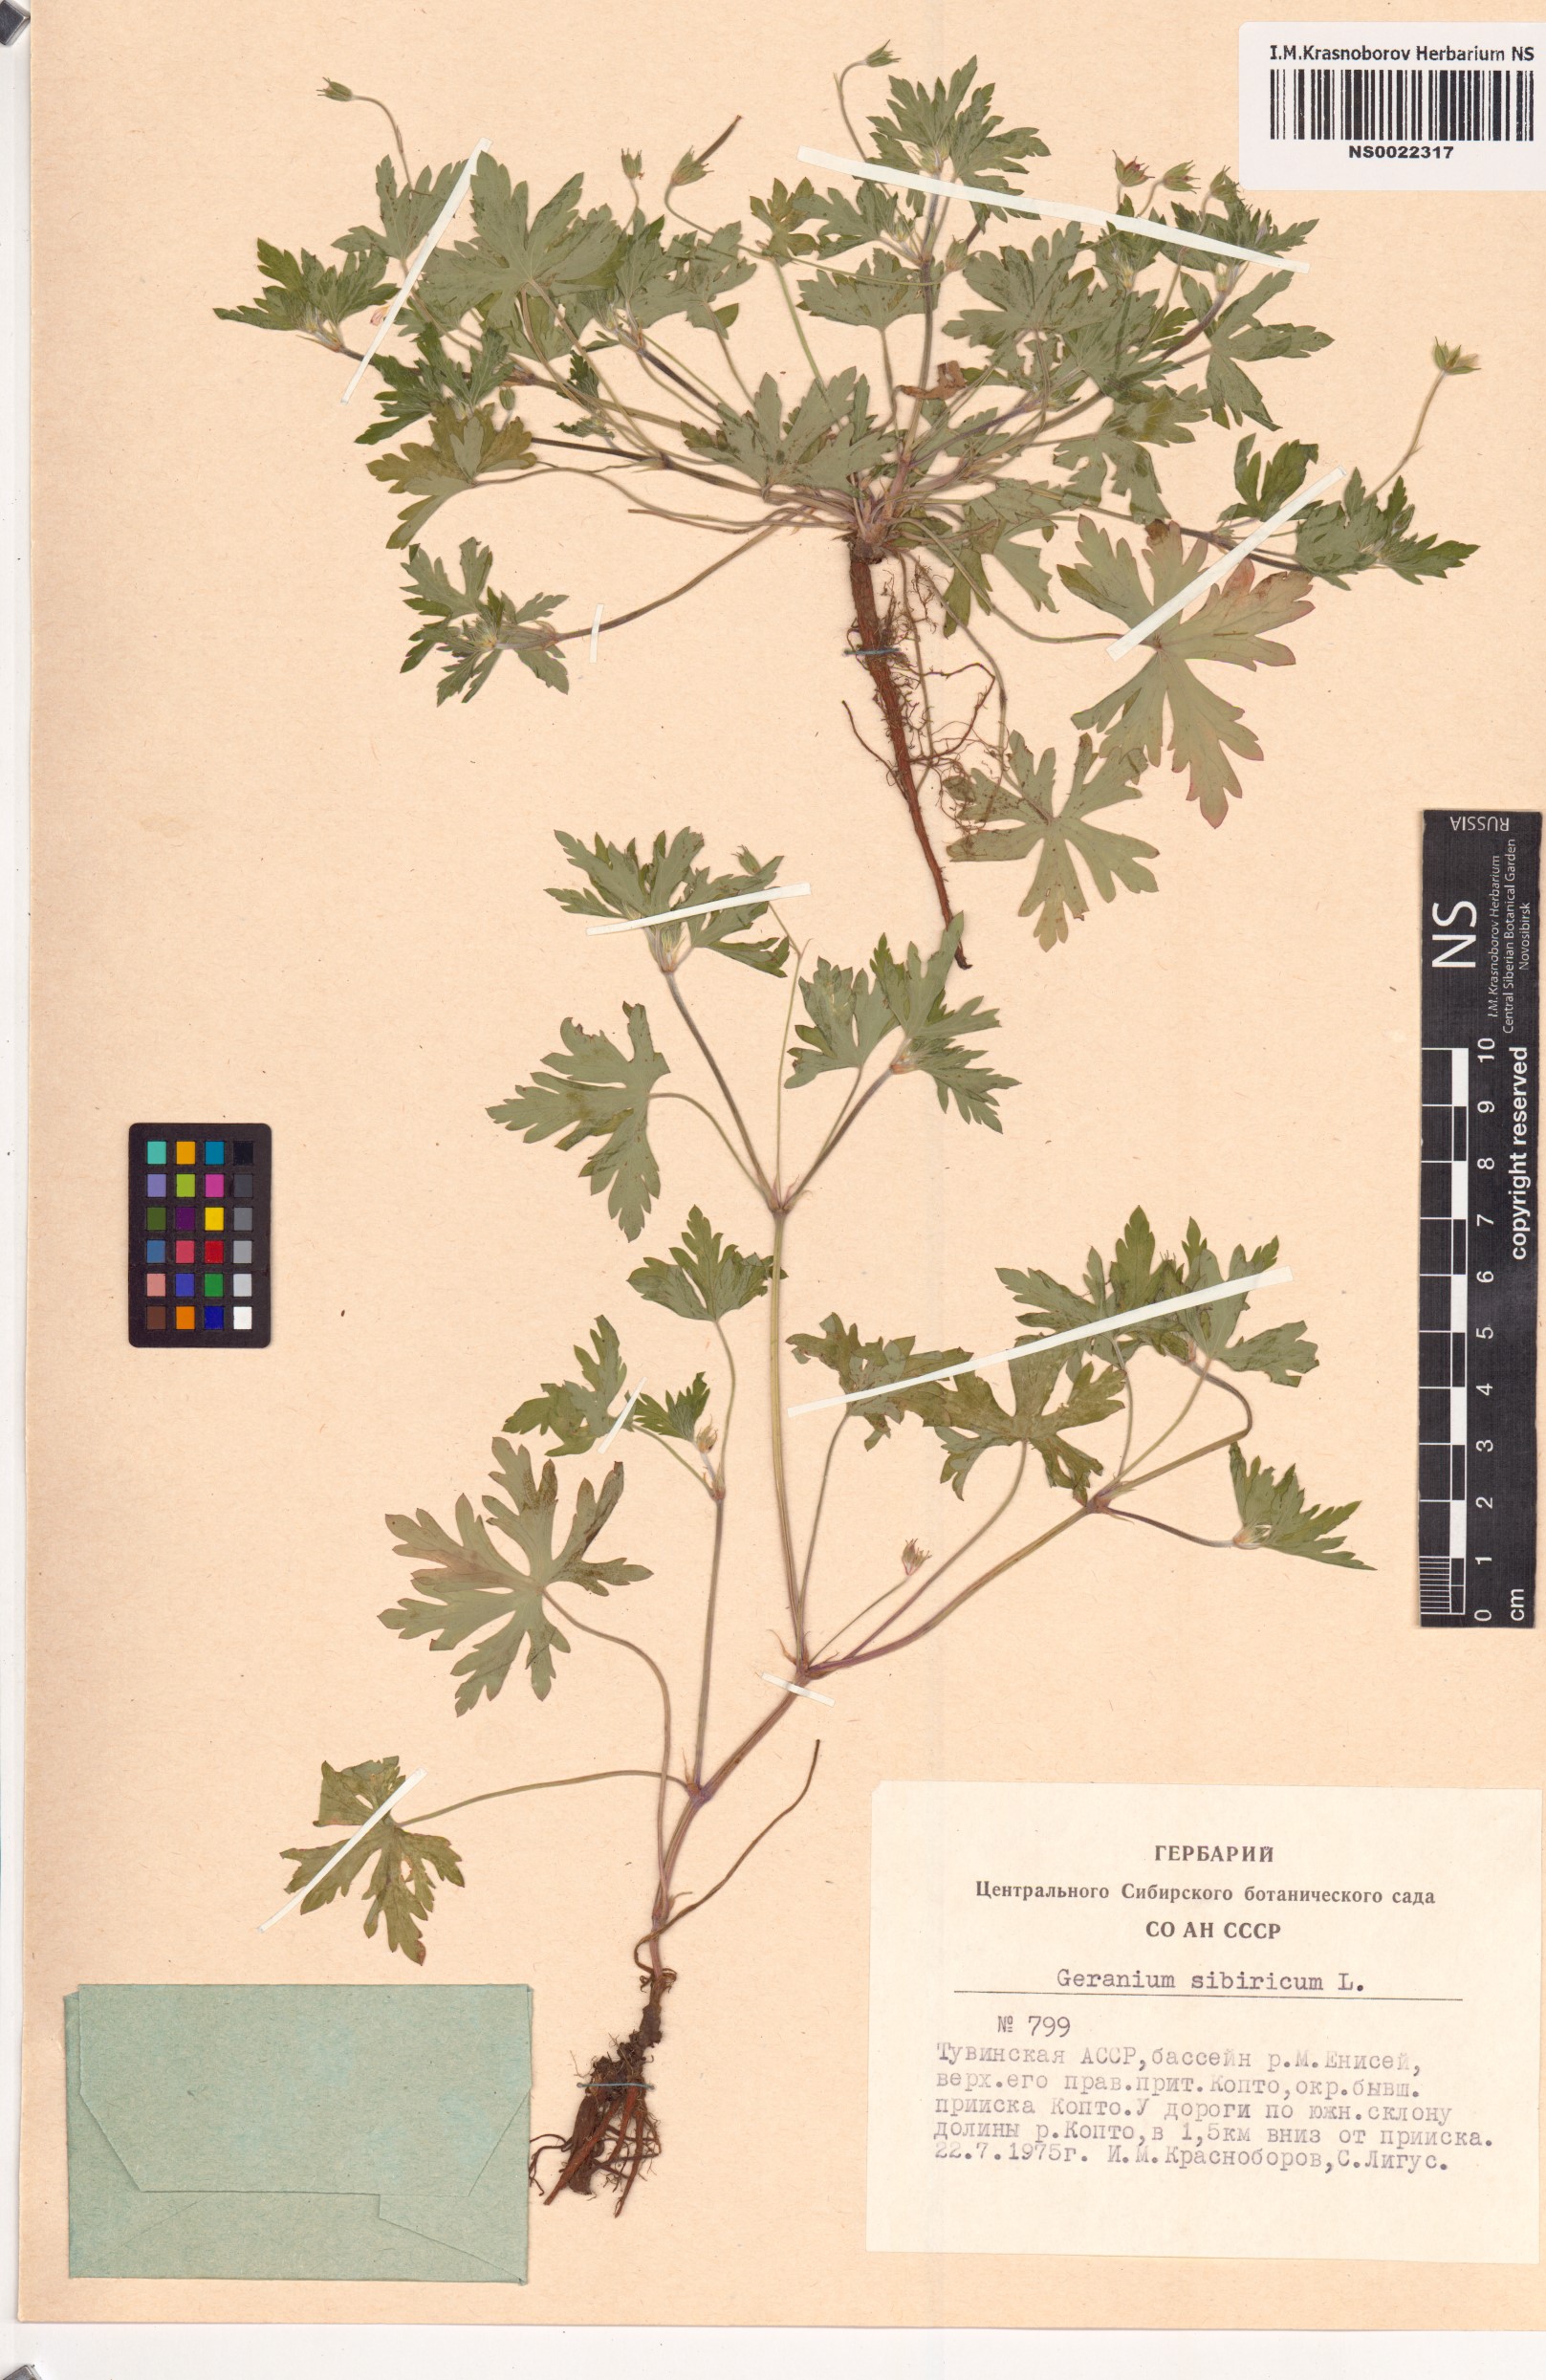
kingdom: Plantae
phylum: Tracheophyta
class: Magnoliopsida
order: Geraniales
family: Geraniaceae
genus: Geranium
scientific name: Geranium sibiricum
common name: Siberian crane's-bill
